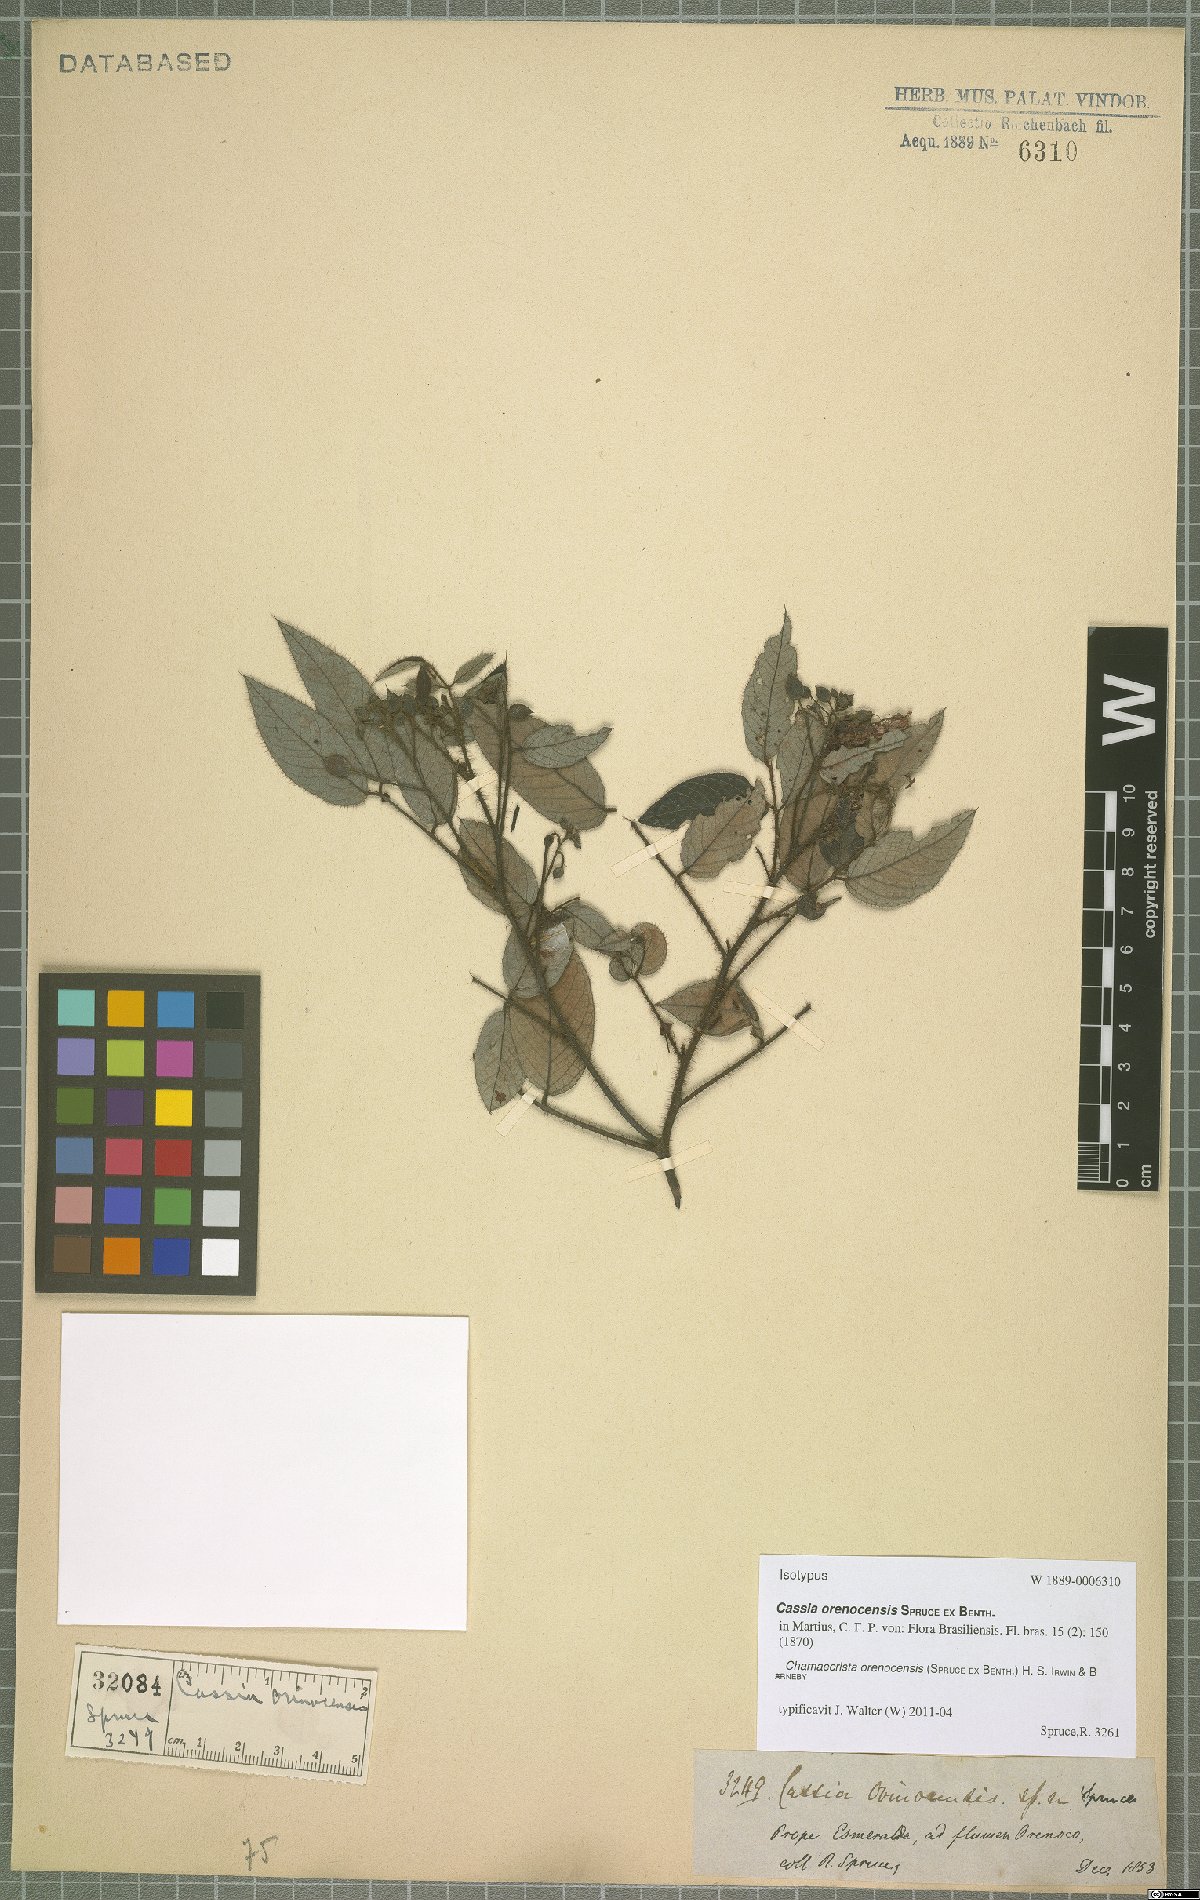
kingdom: Plantae
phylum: Tracheophyta
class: Magnoliopsida
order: Fabales
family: Fabaceae
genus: Chamaecrista
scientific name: Chamaecrista orenocensis
